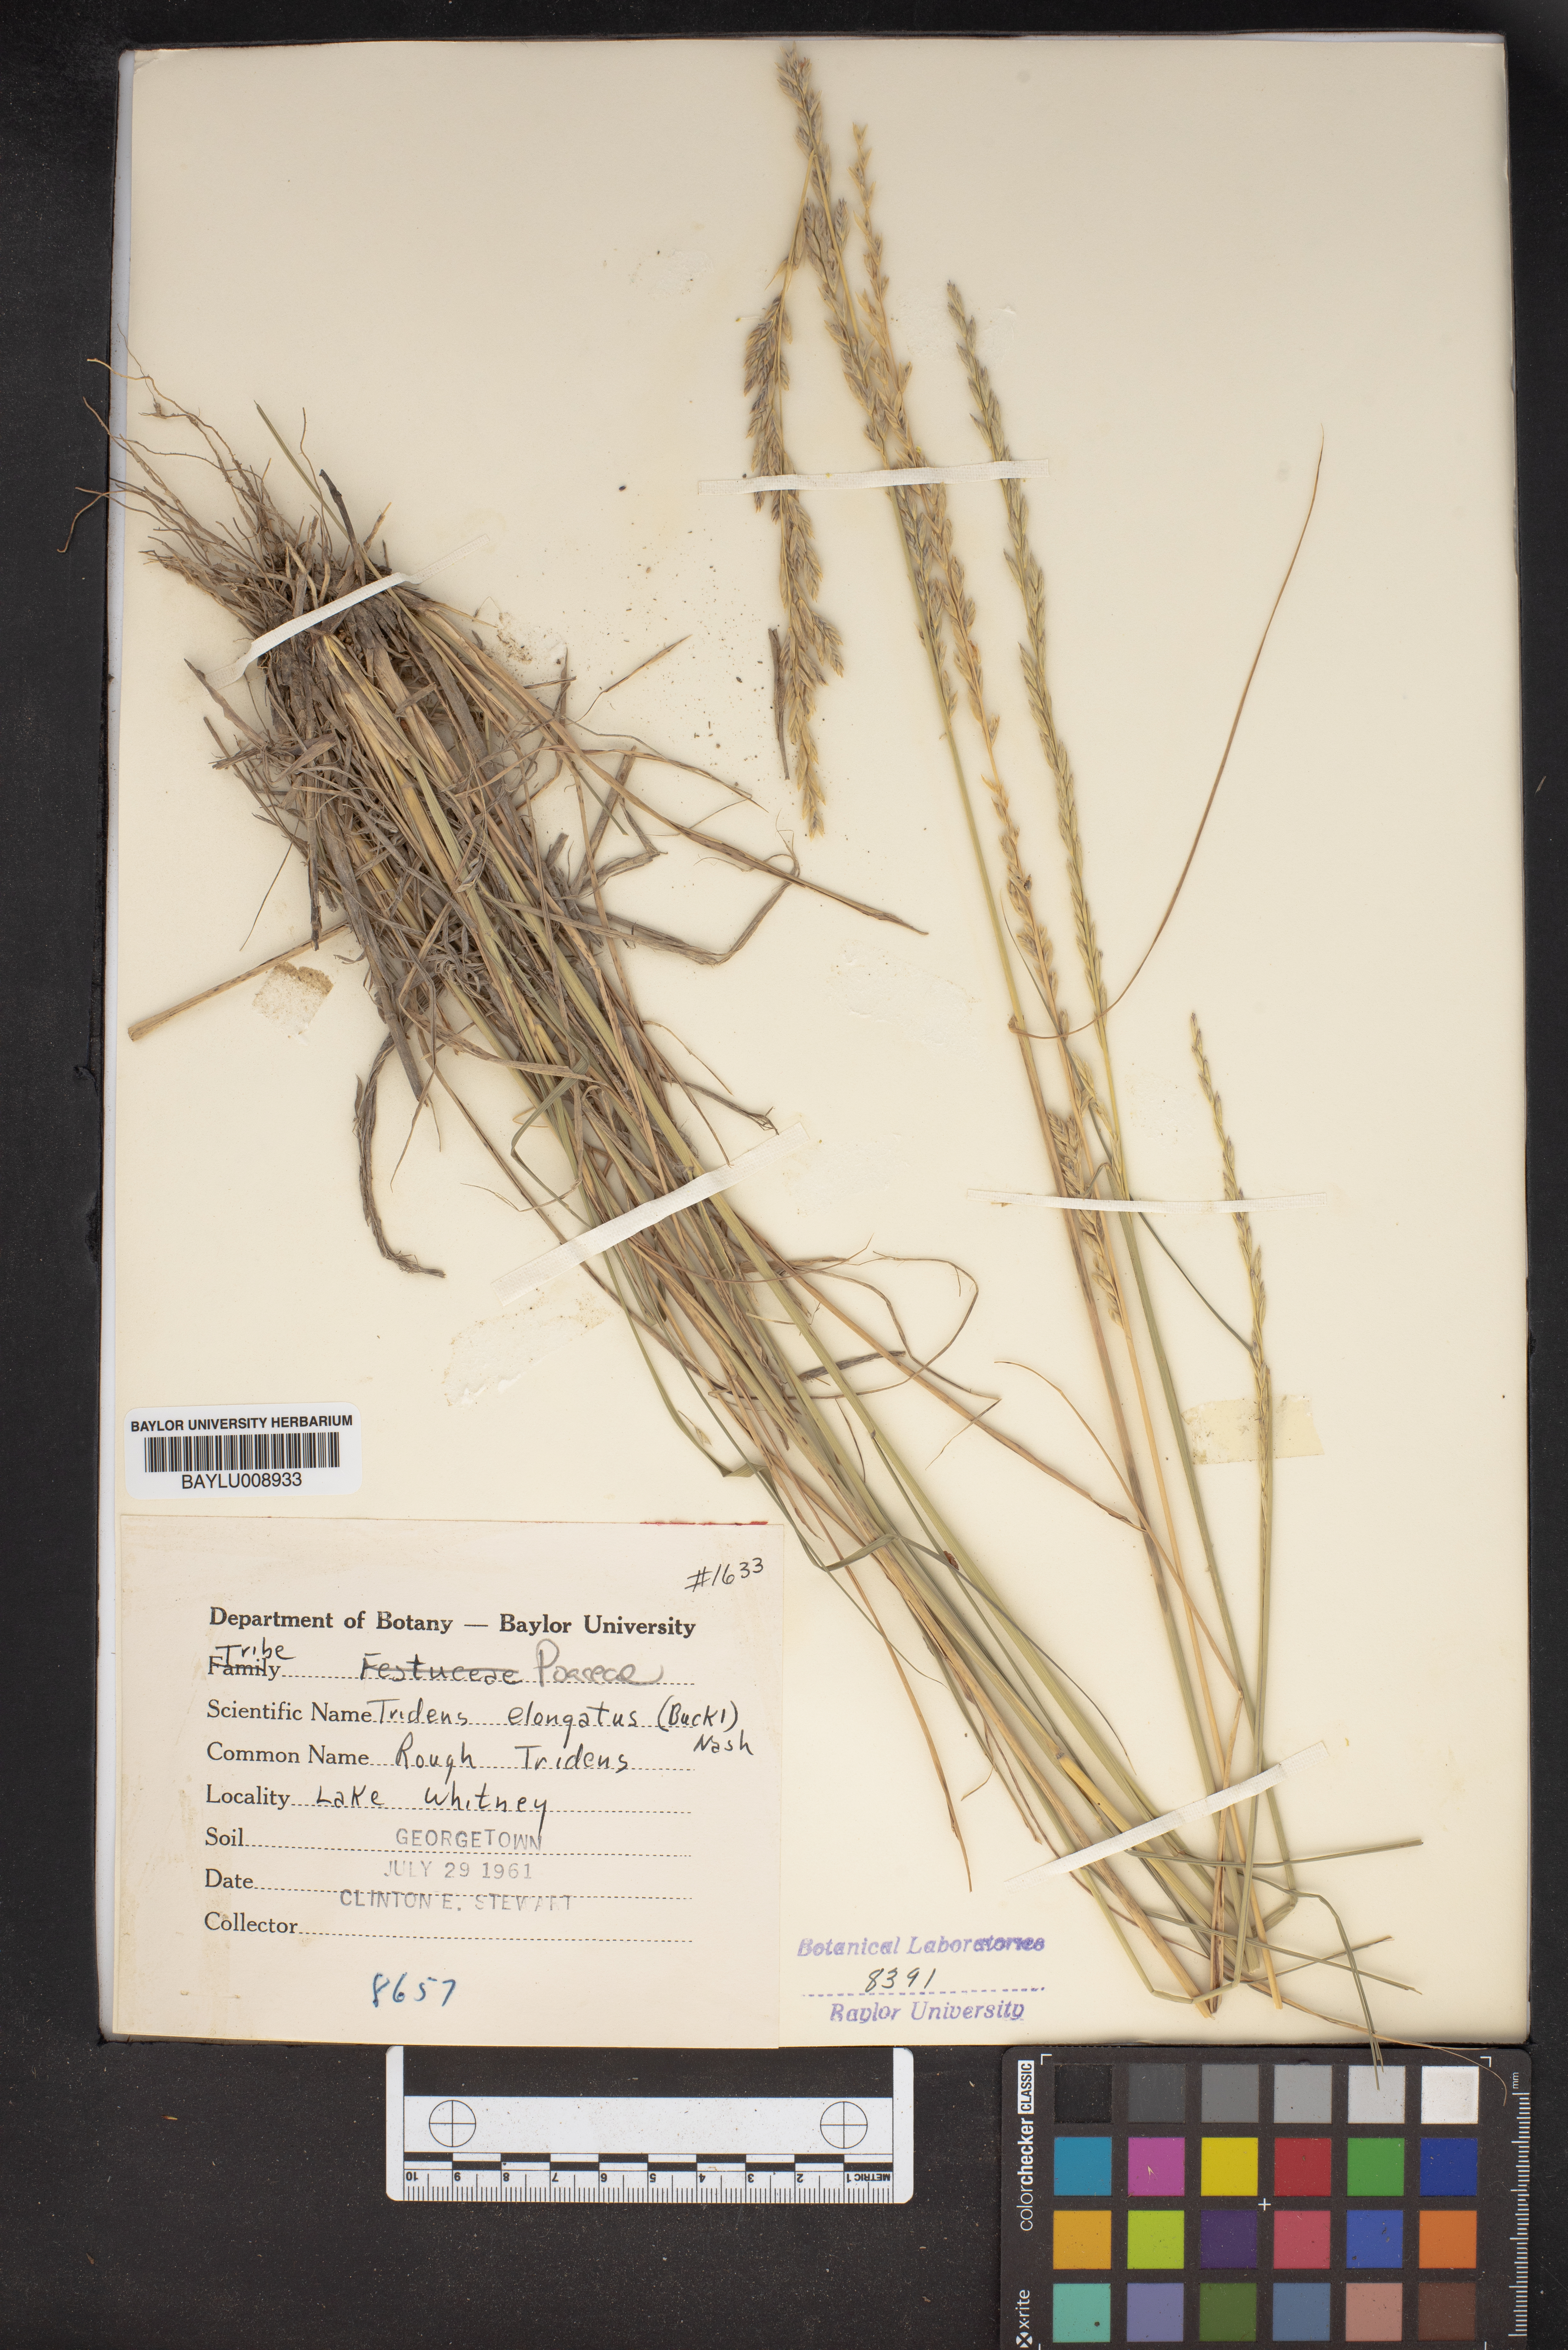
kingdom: Plantae
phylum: Tracheophyta
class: Liliopsida
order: Poales
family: Poaceae
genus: Tridentopsis
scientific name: Tridentopsis mutica
